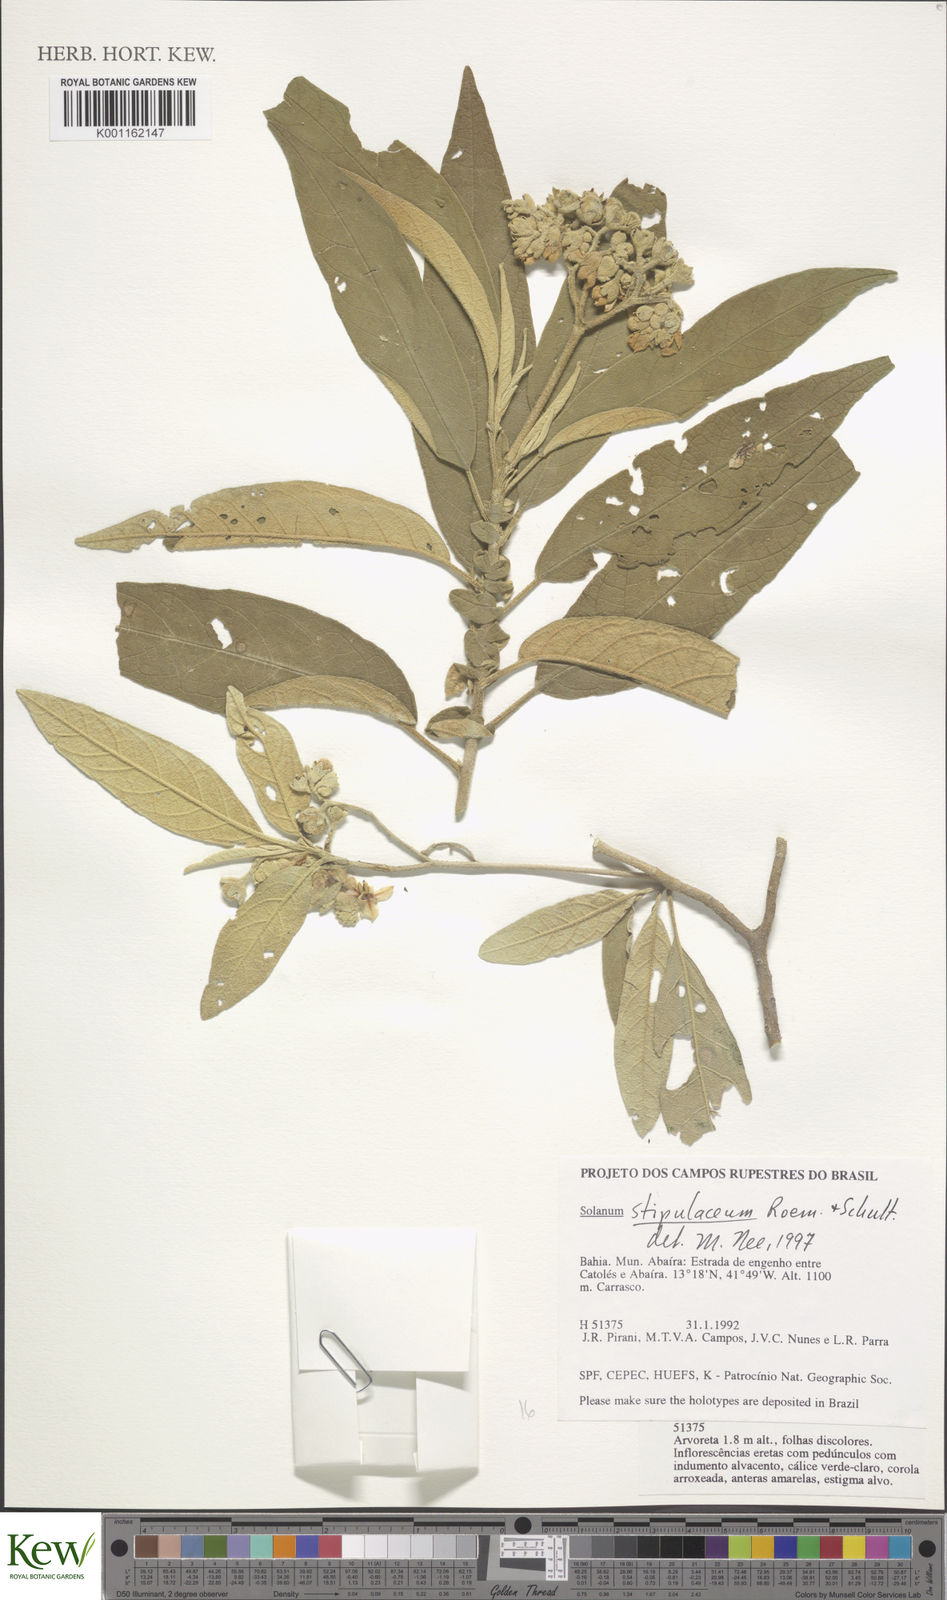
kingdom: Plantae
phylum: Tracheophyta
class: Magnoliopsida
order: Solanales
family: Solanaceae
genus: Solanum
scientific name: Solanum stipulaceum
